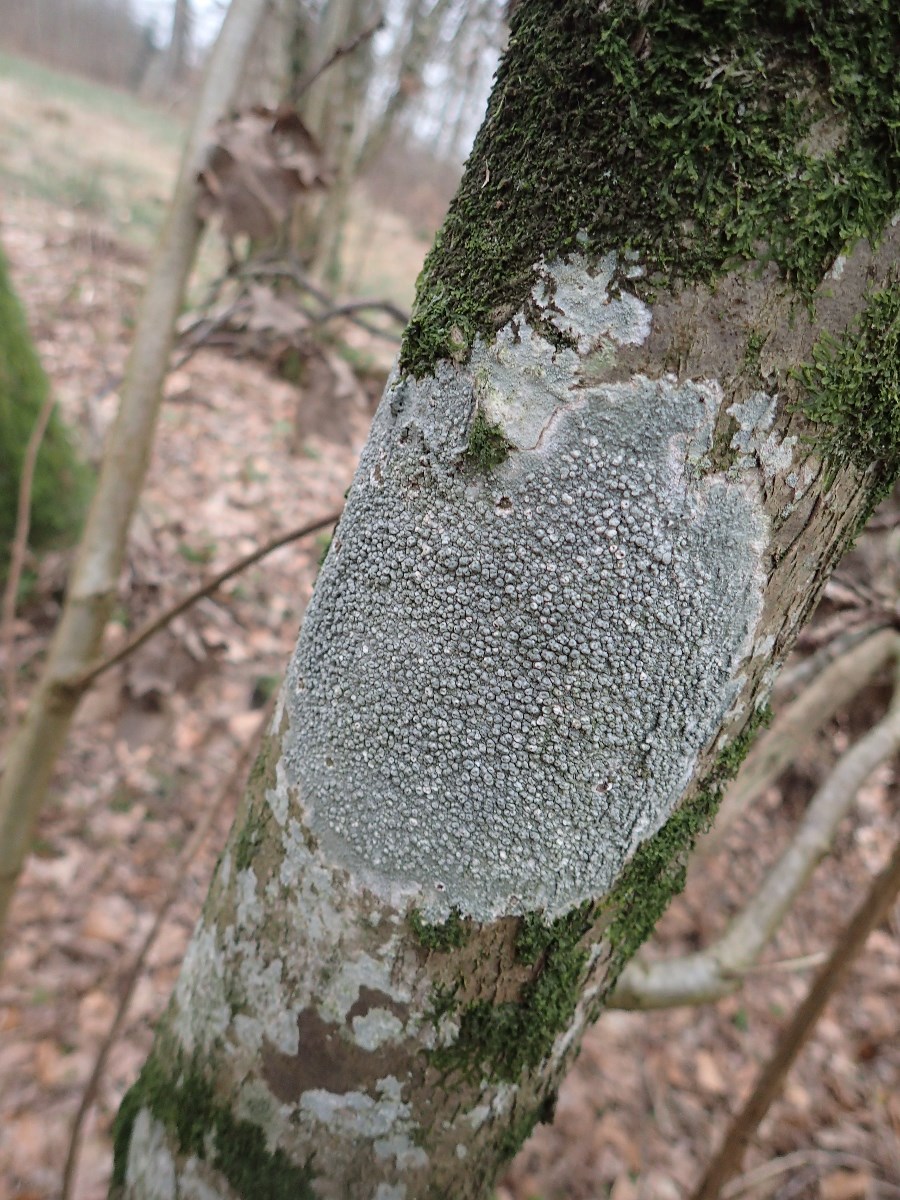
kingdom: Fungi
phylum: Ascomycota
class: Lecanoromycetes
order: Pertusariales
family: Pertusariaceae
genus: Pertusaria
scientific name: Pertusaria pertusa
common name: almindelig prikvortelav
